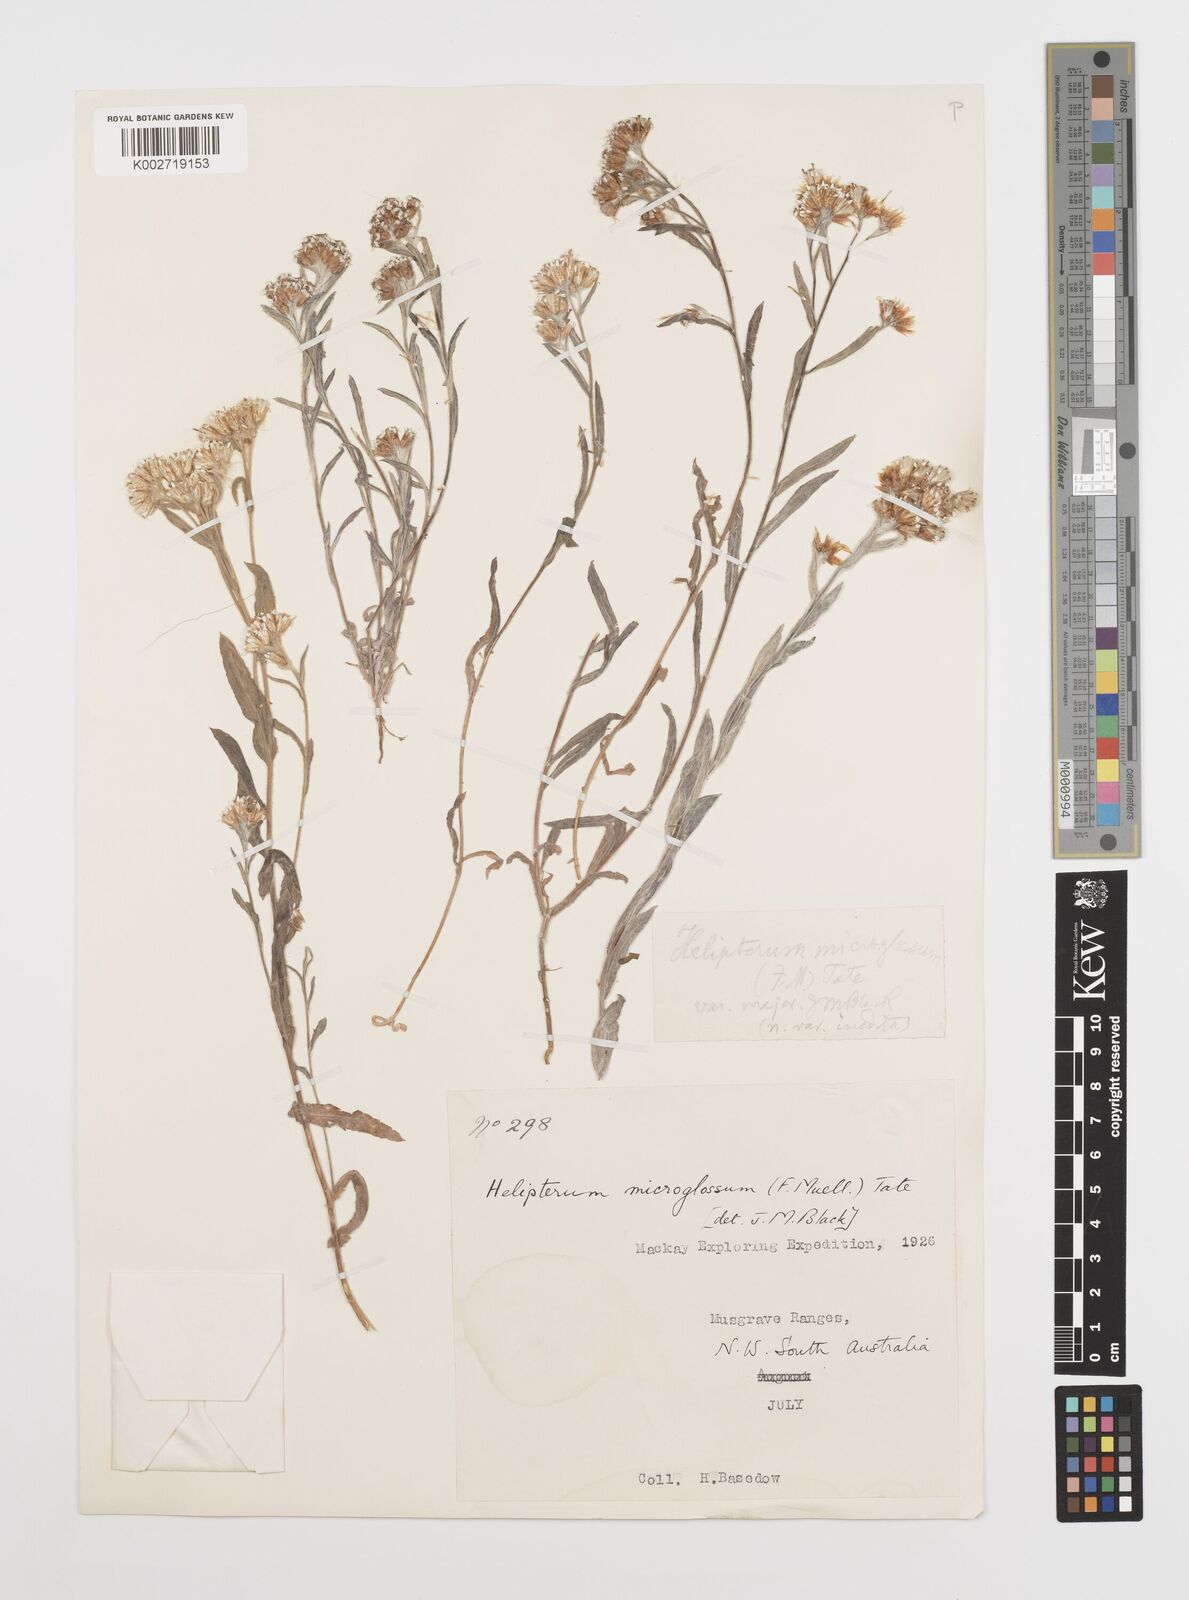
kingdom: Plantae
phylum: Tracheophyta
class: Magnoliopsida
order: Asterales
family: Asteraceae
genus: Rhodanthe
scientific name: Rhodanthe microglossa
